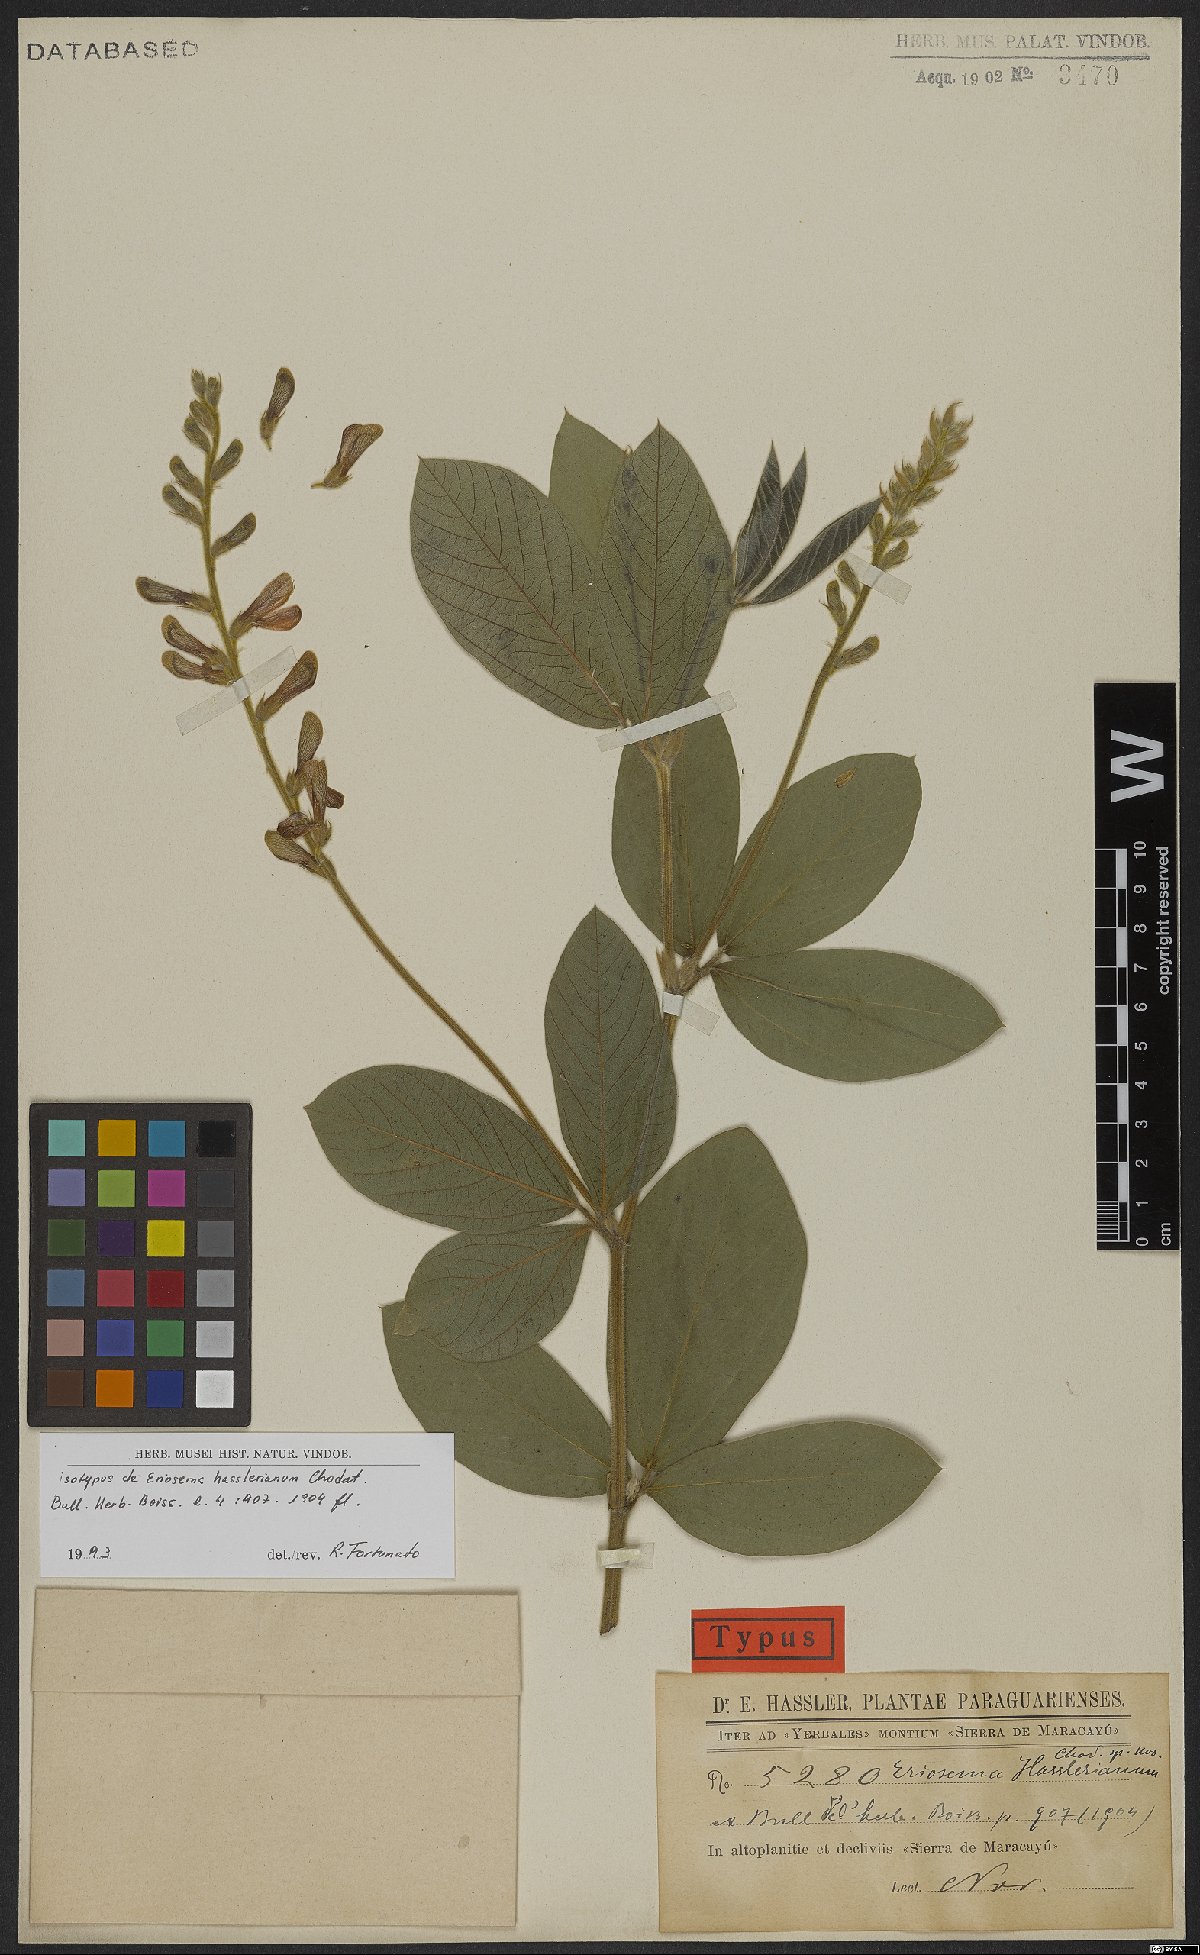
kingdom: Plantae
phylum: Tracheophyta
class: Magnoliopsida
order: Fabales
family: Fabaceae
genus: Eriosema
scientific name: Eriosema hasslerianum
